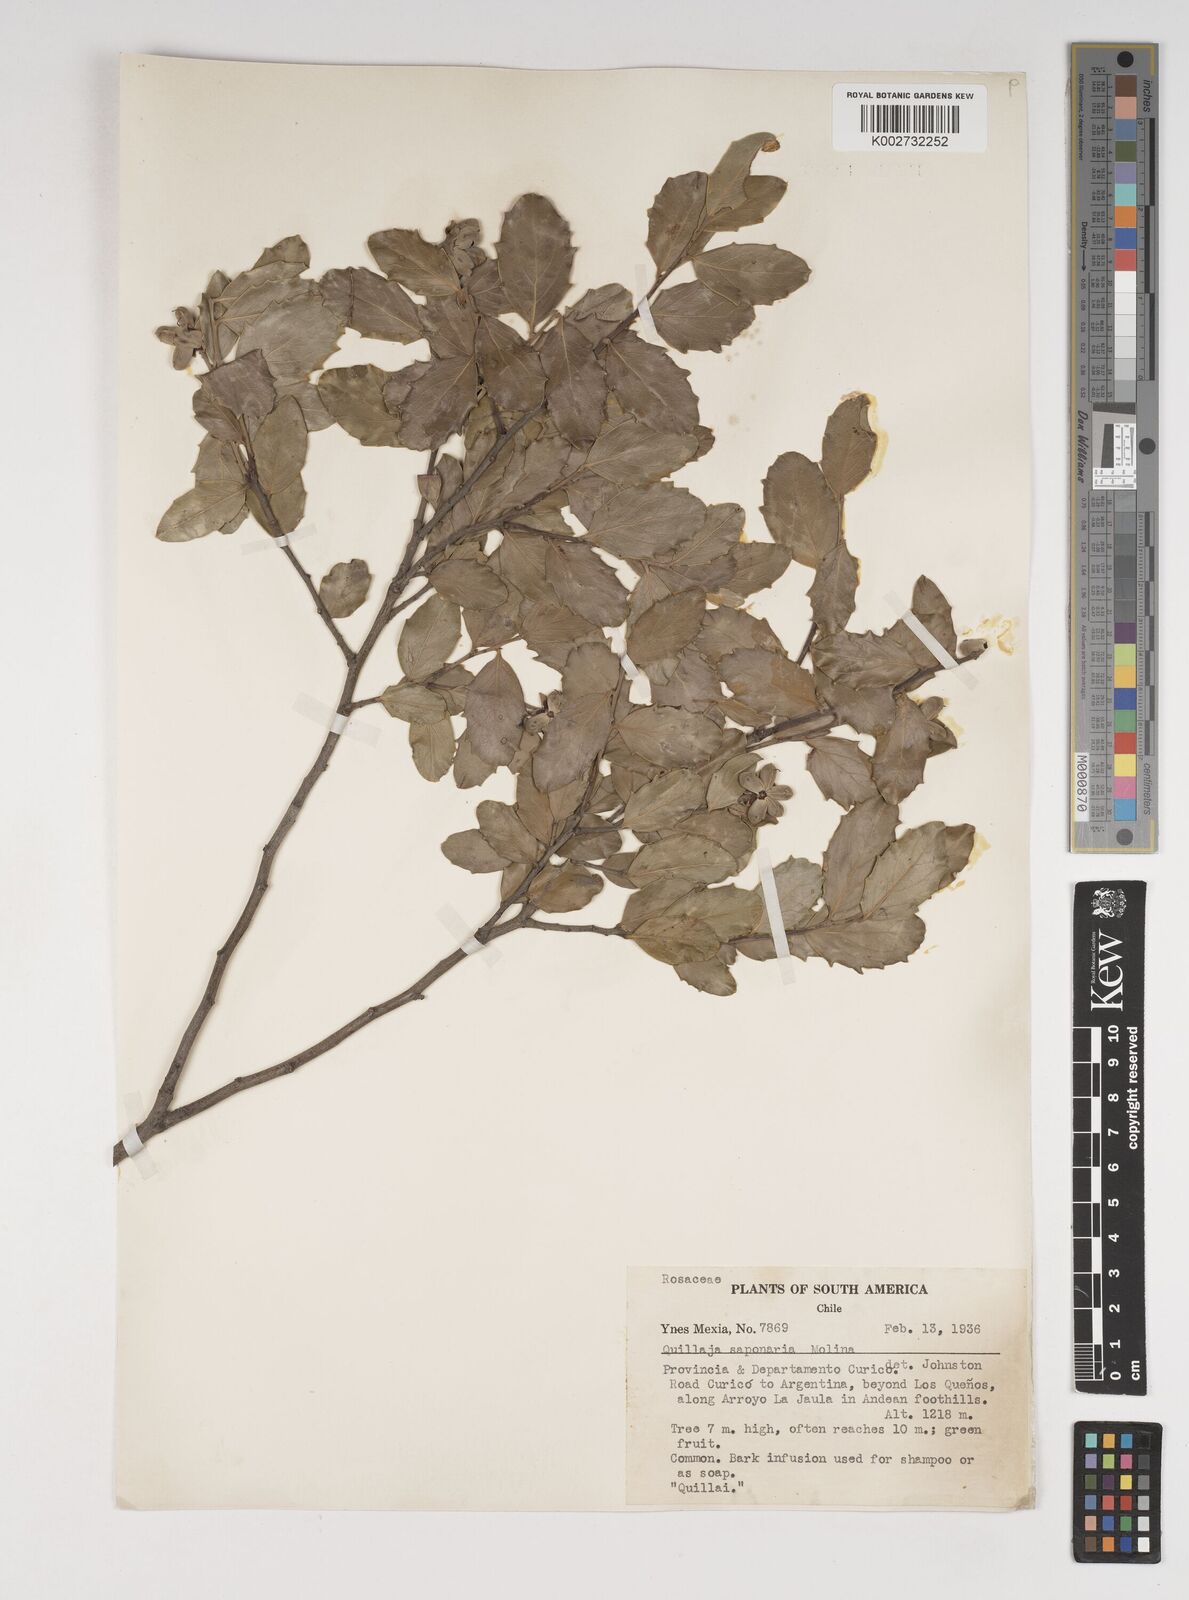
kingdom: Plantae
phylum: Tracheophyta
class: Magnoliopsida
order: Fabales
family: Quillajaceae
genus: Quillaja
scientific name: Quillaja saponaria
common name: Murillo's-bark
